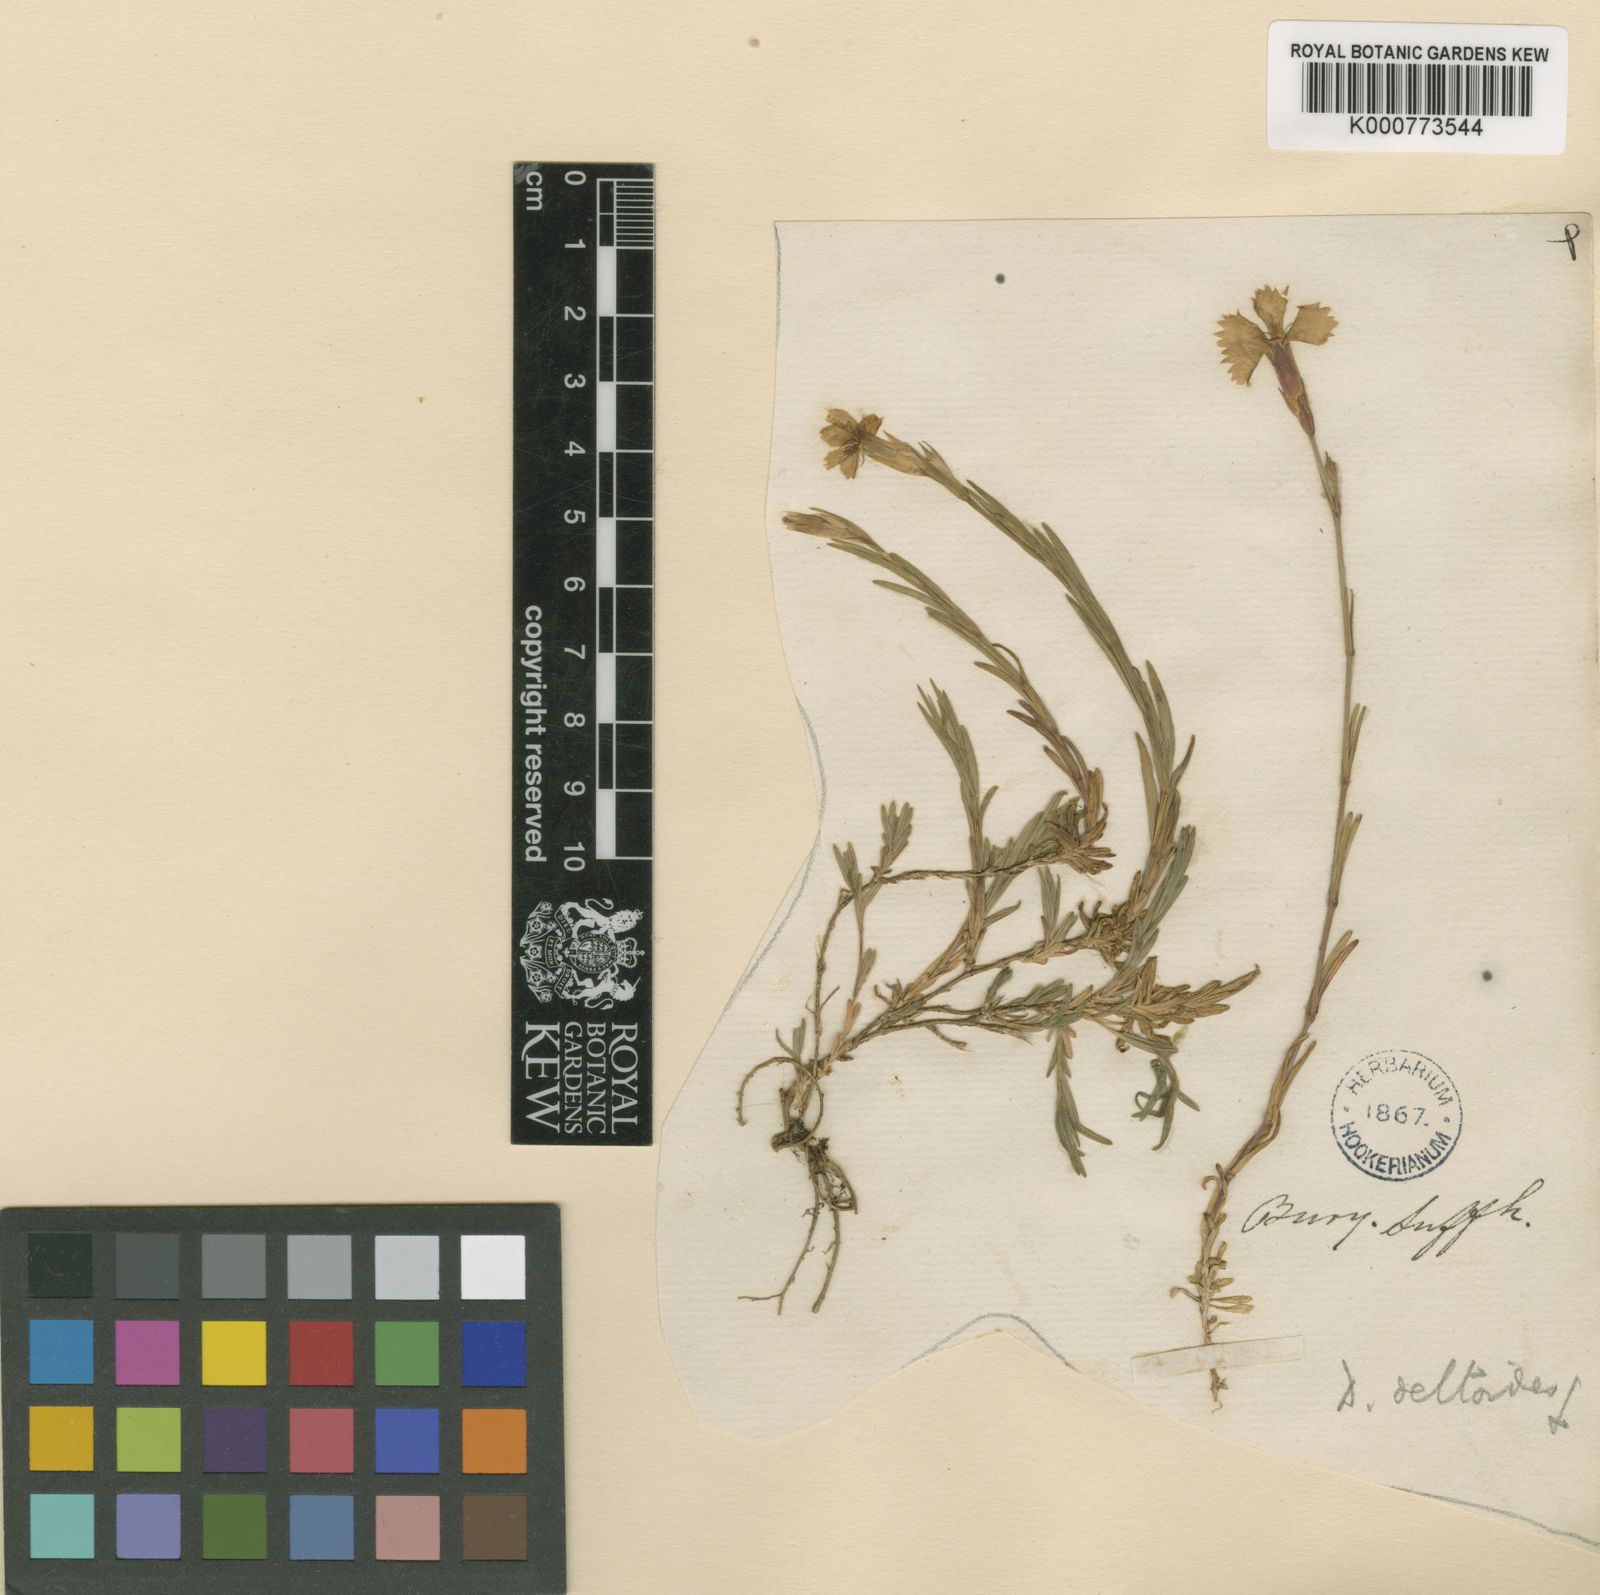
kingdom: Plantae
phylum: Tracheophyta
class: Magnoliopsida
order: Caryophyllales
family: Caryophyllaceae
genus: Dianthus
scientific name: Dianthus deltoides
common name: Maiden pink
